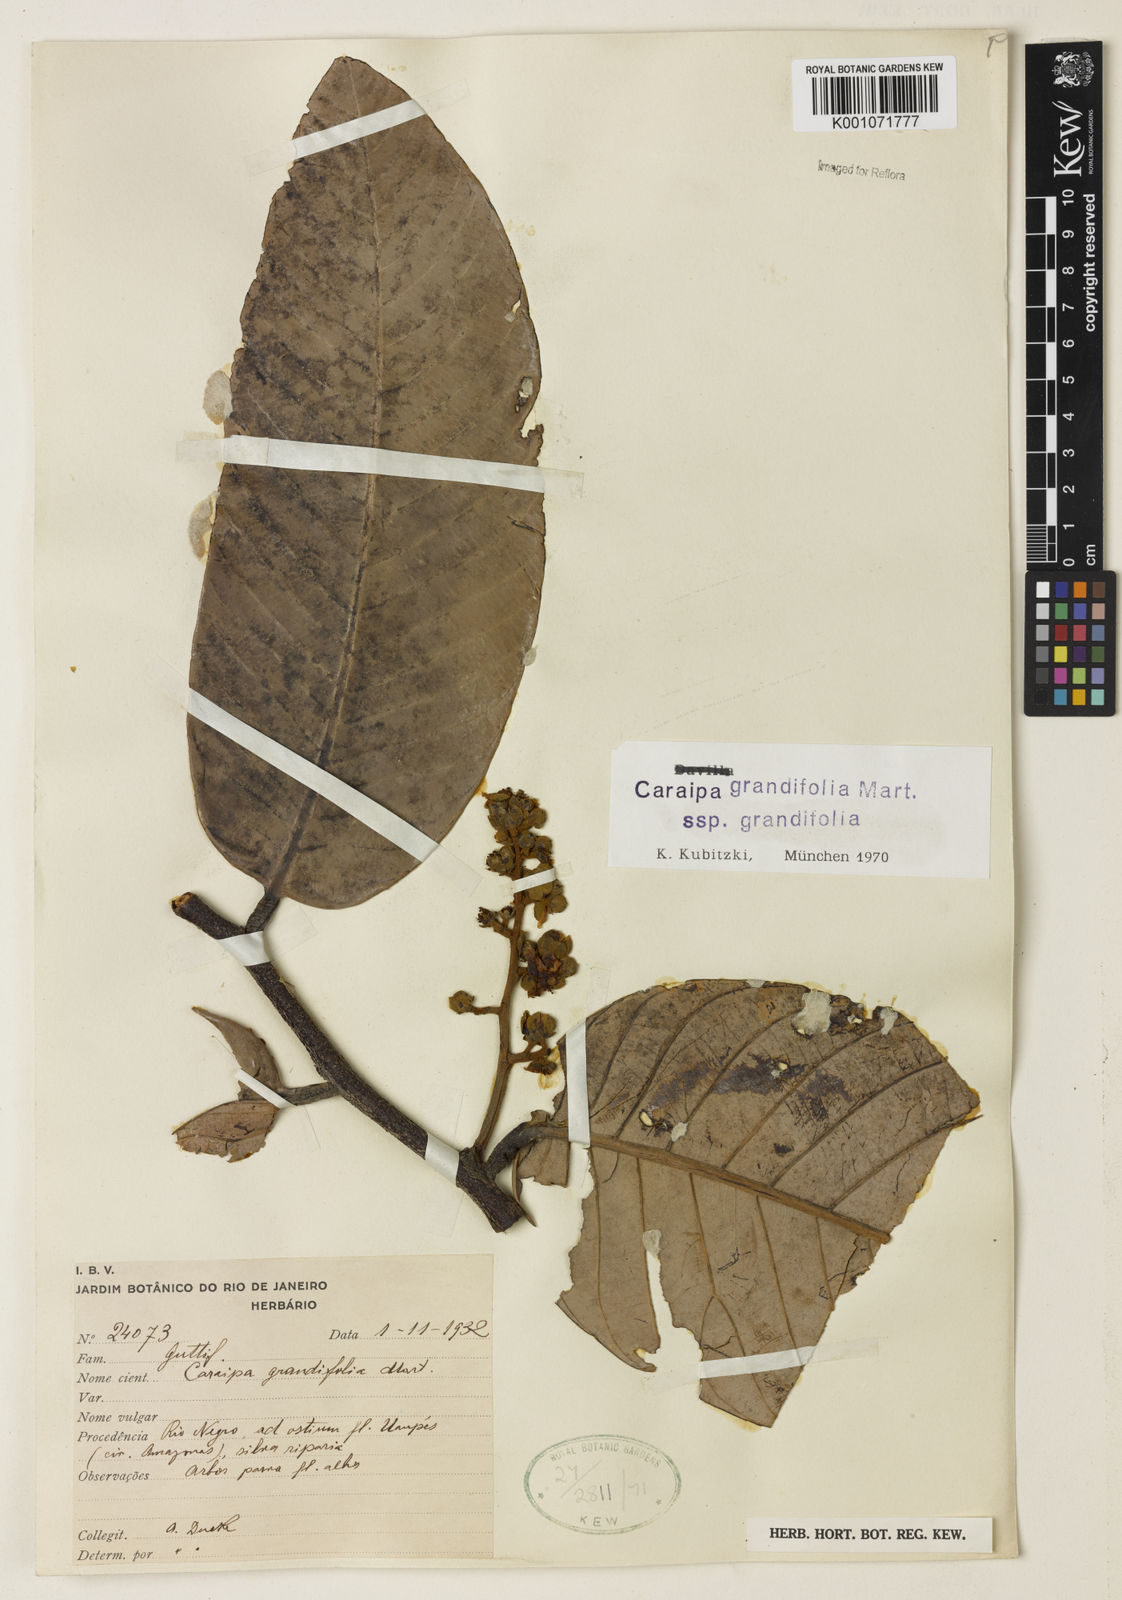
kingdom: Plantae
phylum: Tracheophyta
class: Magnoliopsida
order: Malpighiales
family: Calophyllaceae
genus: Caraipa
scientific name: Caraipa grandifolia
